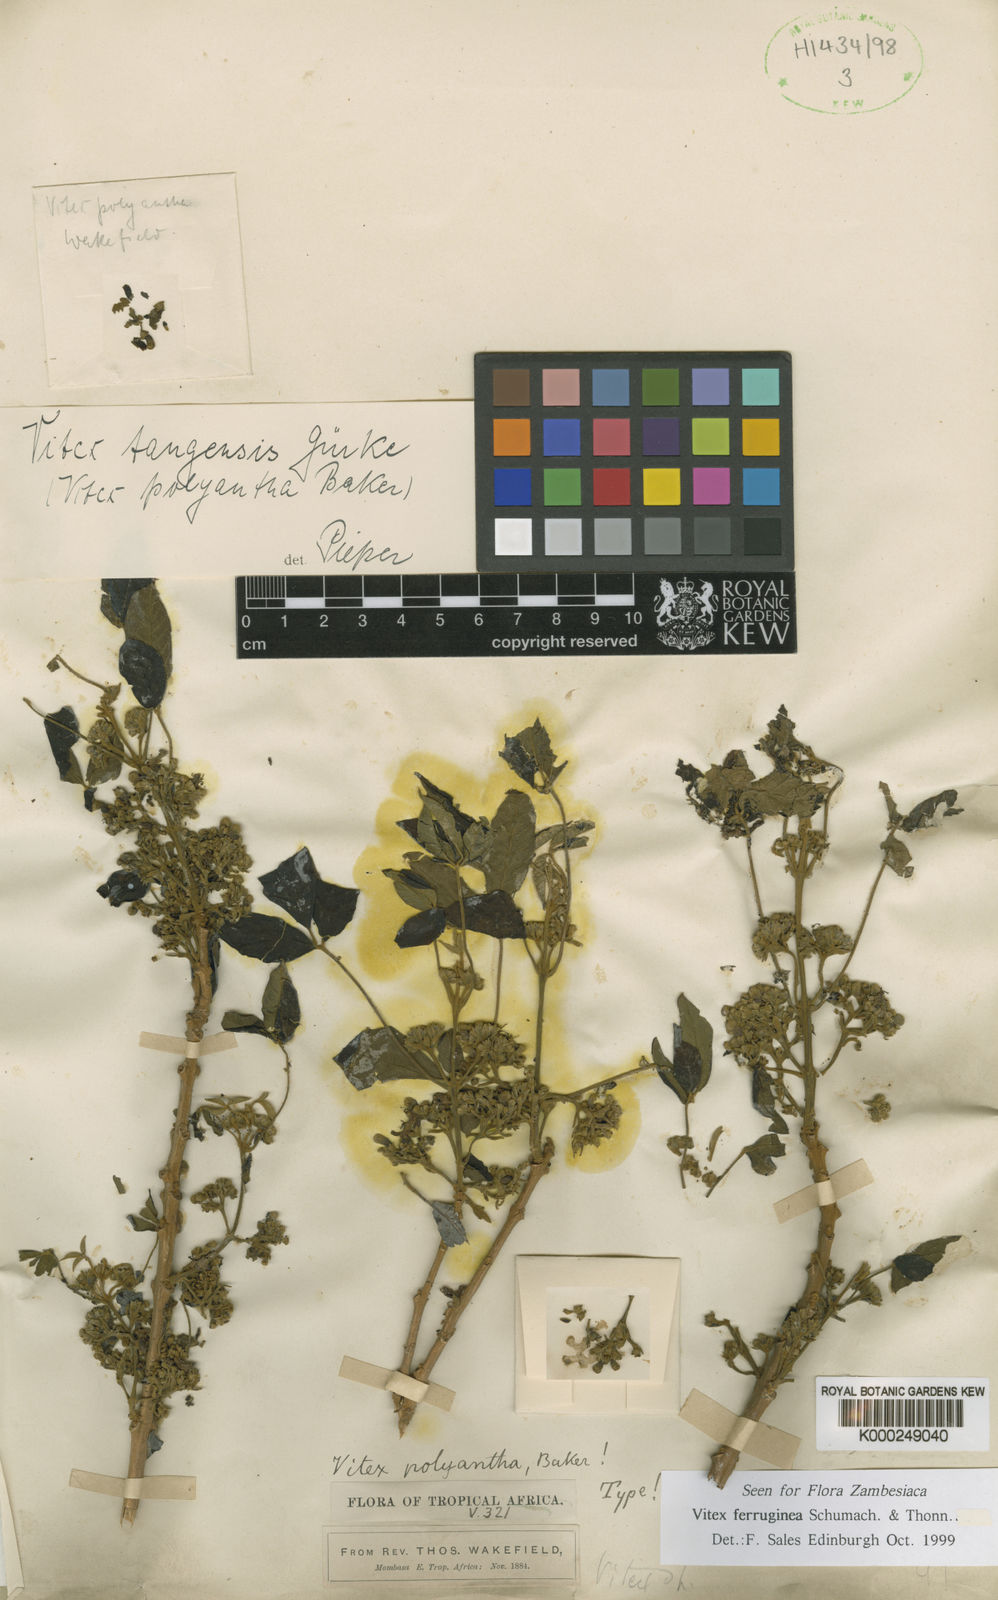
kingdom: Plantae
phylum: Tracheophyta
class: Magnoliopsida
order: Lamiales
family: Lamiaceae
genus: Vitex
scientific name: Vitex ferruginea
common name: Plum fingerleaf
